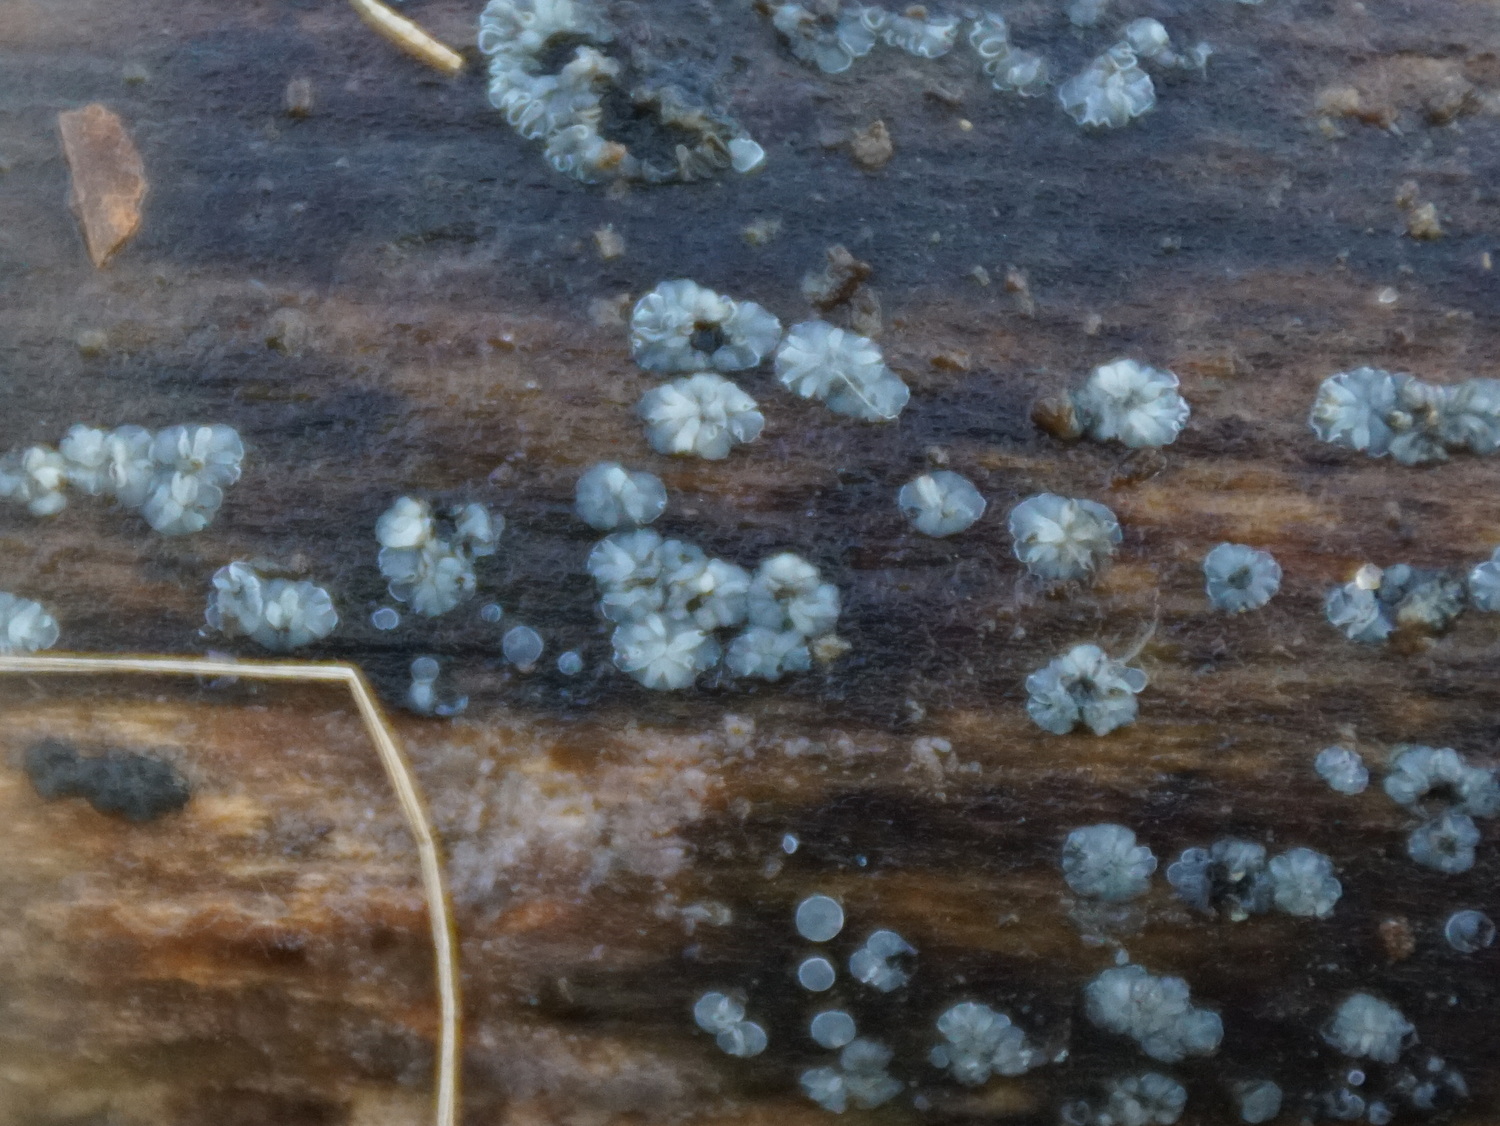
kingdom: Fungi
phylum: Ascomycota
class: Leotiomycetes
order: Helotiales
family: Mollisiaceae
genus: Mollisia
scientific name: Mollisia cinerea
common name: almindelig gråskive
